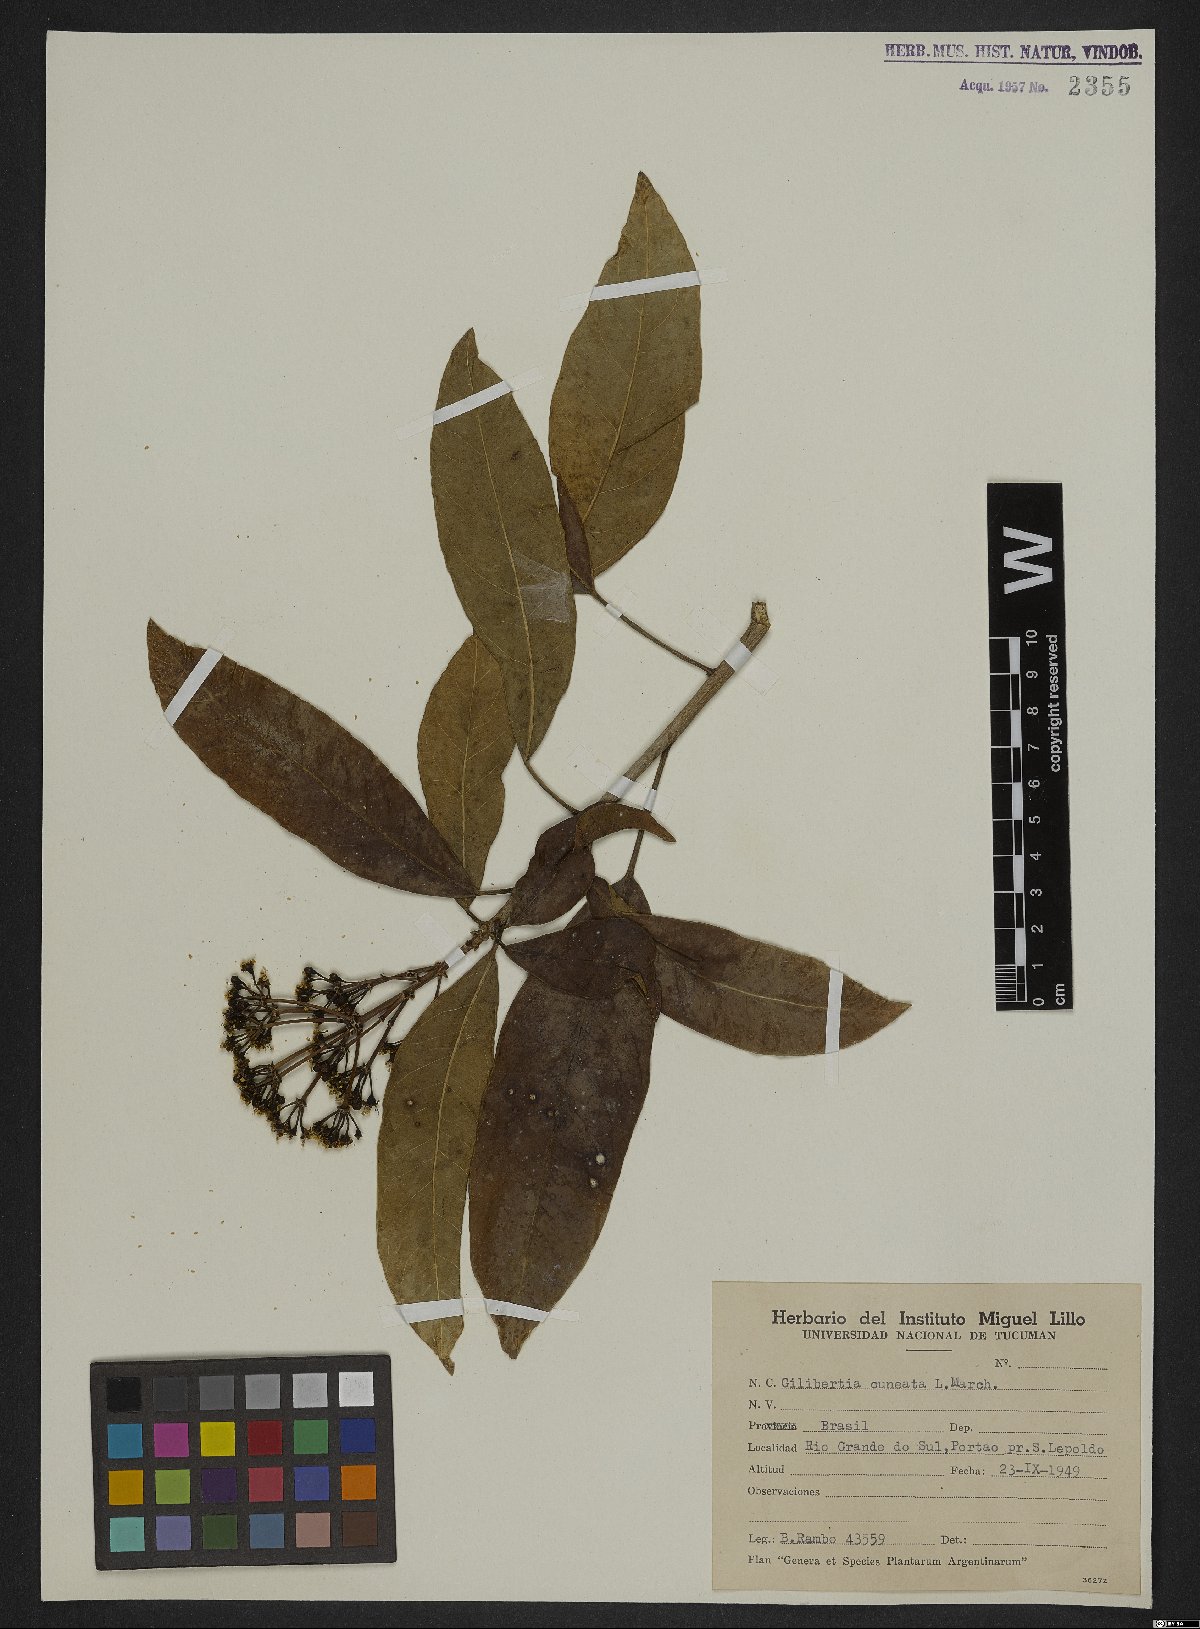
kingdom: Plantae
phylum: Tracheophyta
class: Magnoliopsida
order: Apiales
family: Araliaceae
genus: Dendropanax
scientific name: Dendropanax cuneatus
